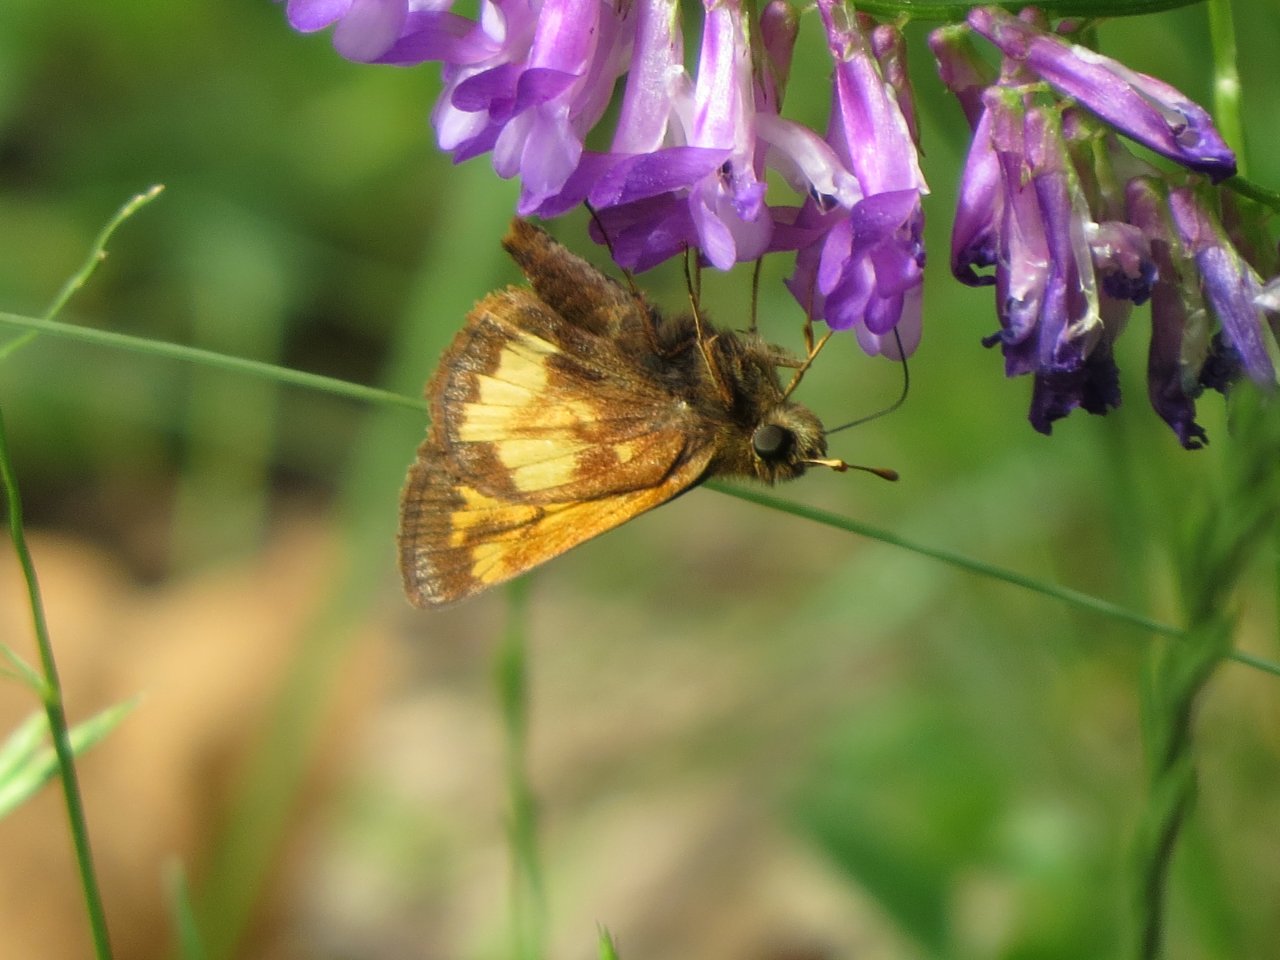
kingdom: Animalia
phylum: Arthropoda
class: Insecta
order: Lepidoptera
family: Hesperiidae
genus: Lon
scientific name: Lon hobomok
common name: Hobomok Skipper
